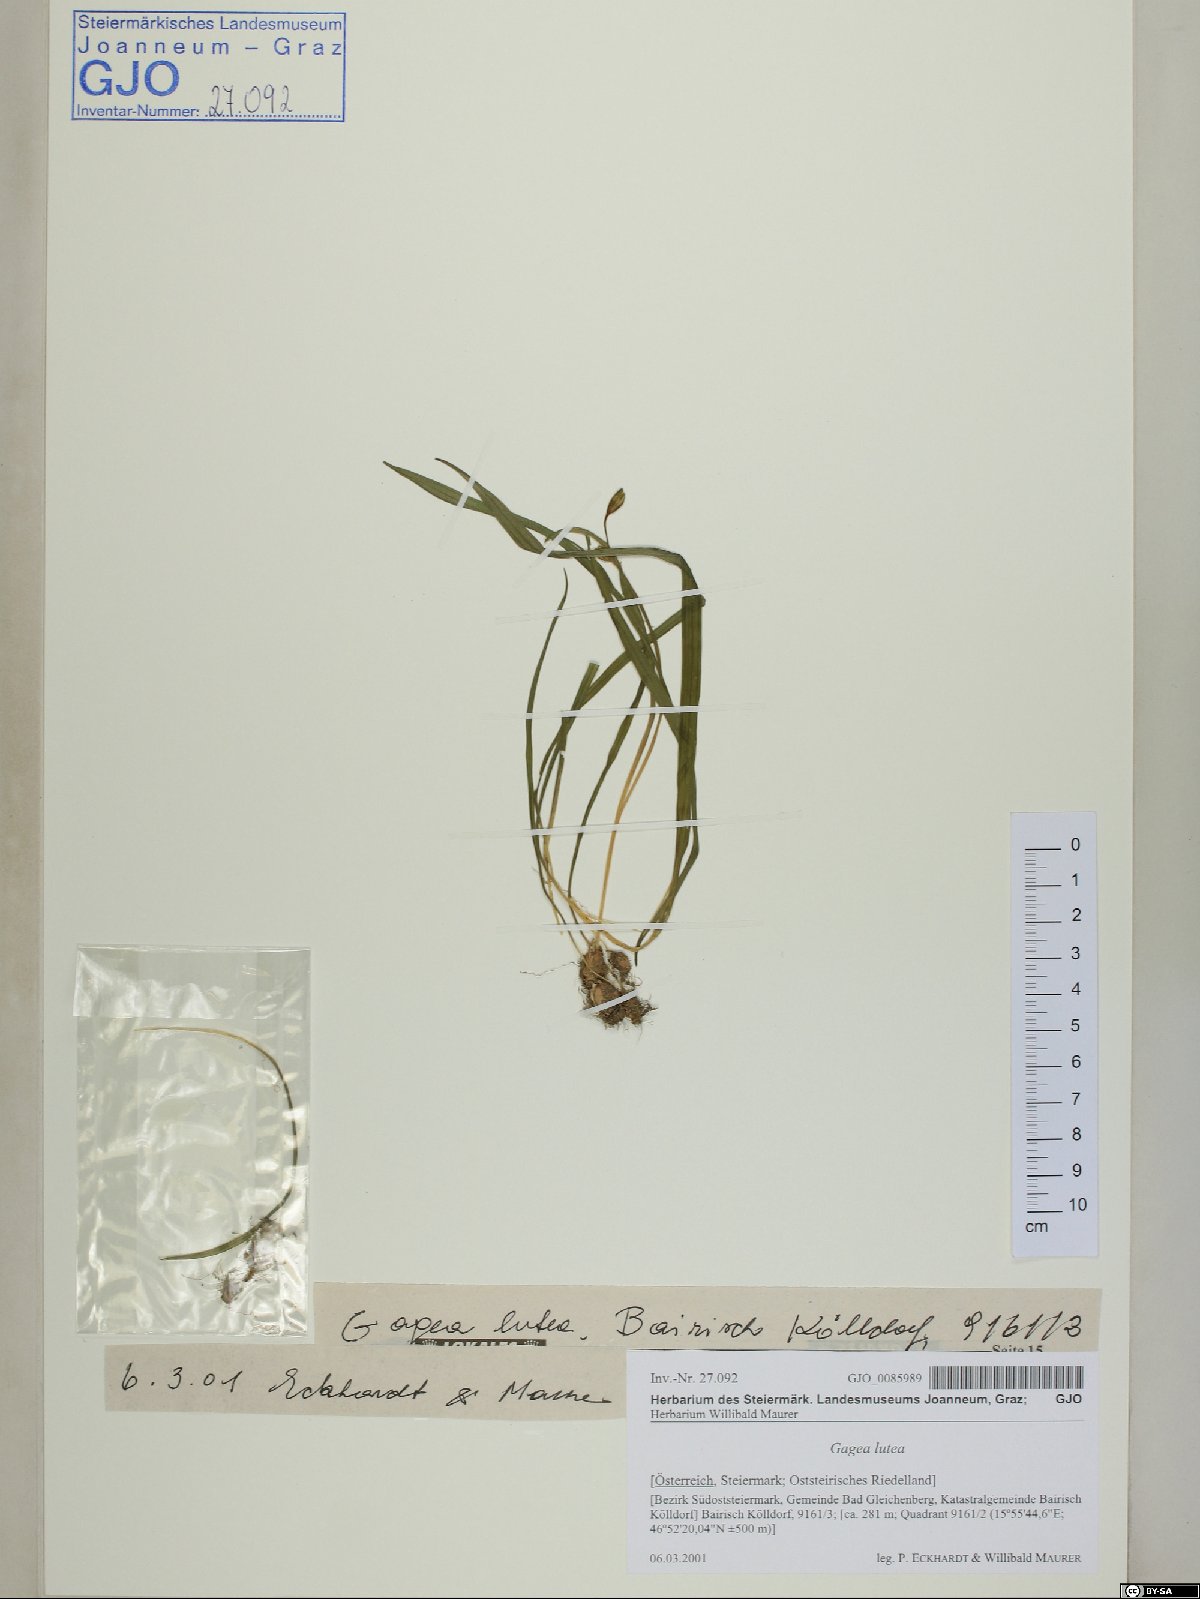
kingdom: Plantae
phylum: Tracheophyta
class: Liliopsida
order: Liliales
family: Liliaceae
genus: Gagea
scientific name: Gagea lutea
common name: Yellow star-of-bethlehem
